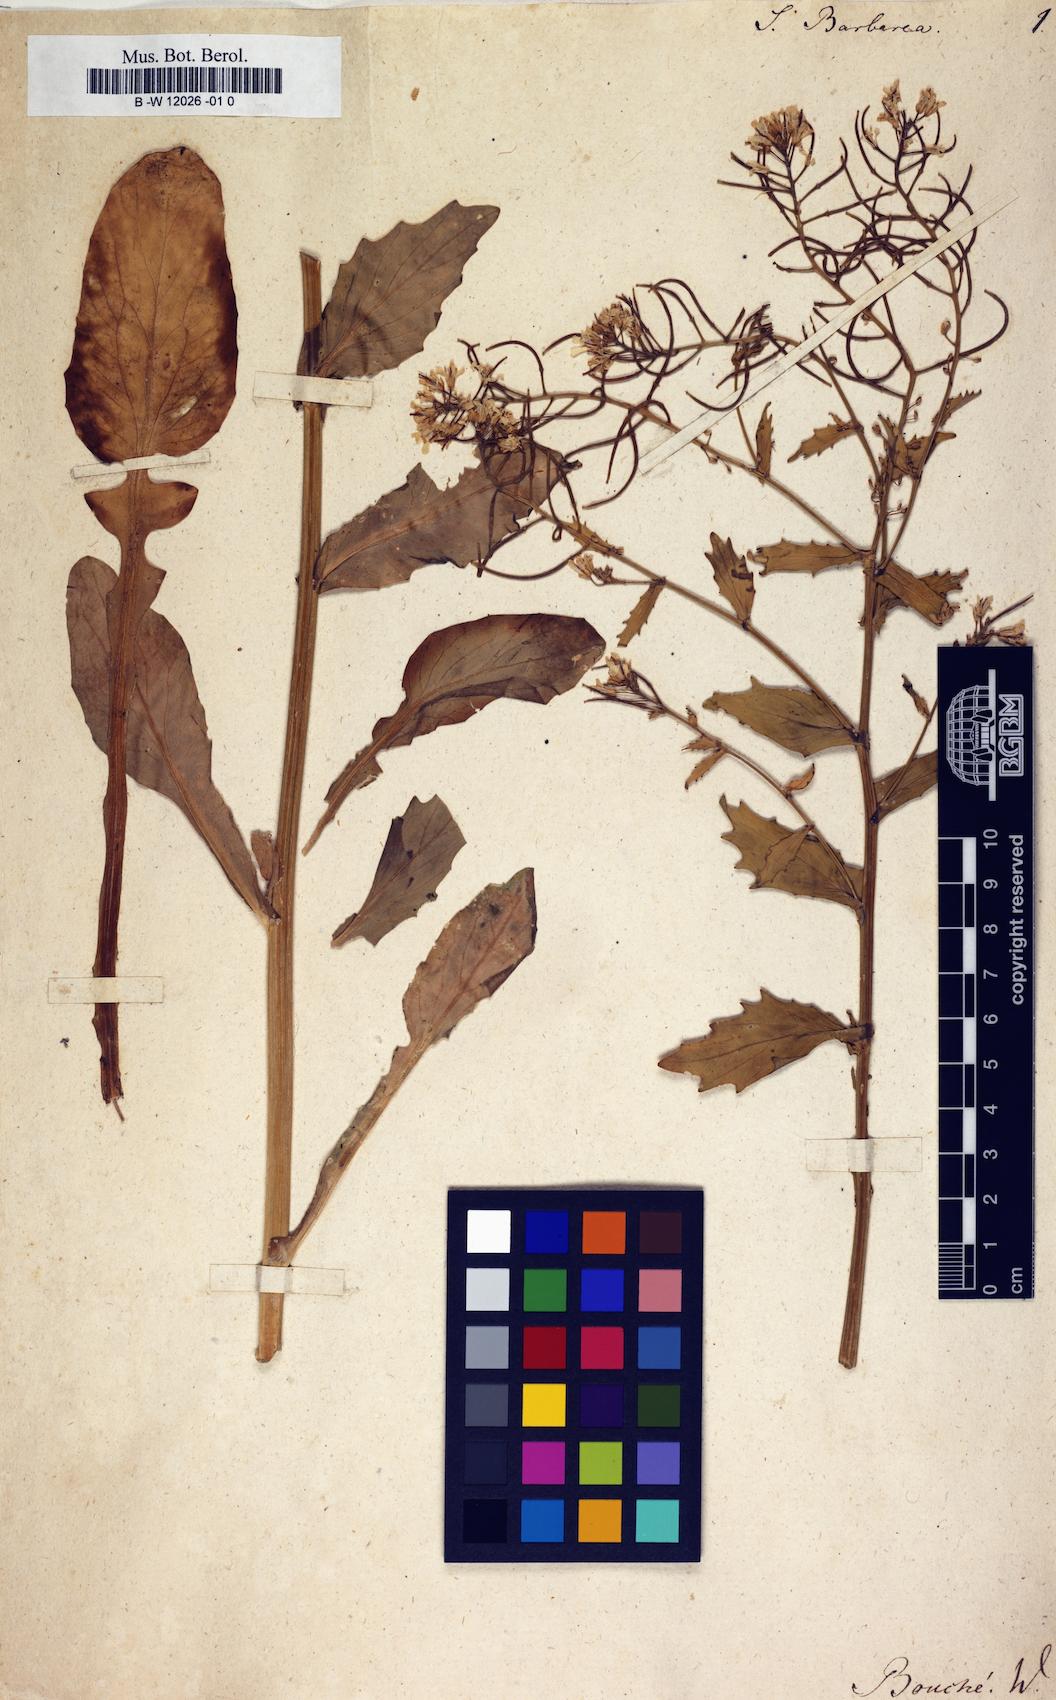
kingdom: Plantae
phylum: Tracheophyta
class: Magnoliopsida
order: Brassicales
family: Brassicaceae
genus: Sisymbrium
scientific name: Sisymbrium barbarea
